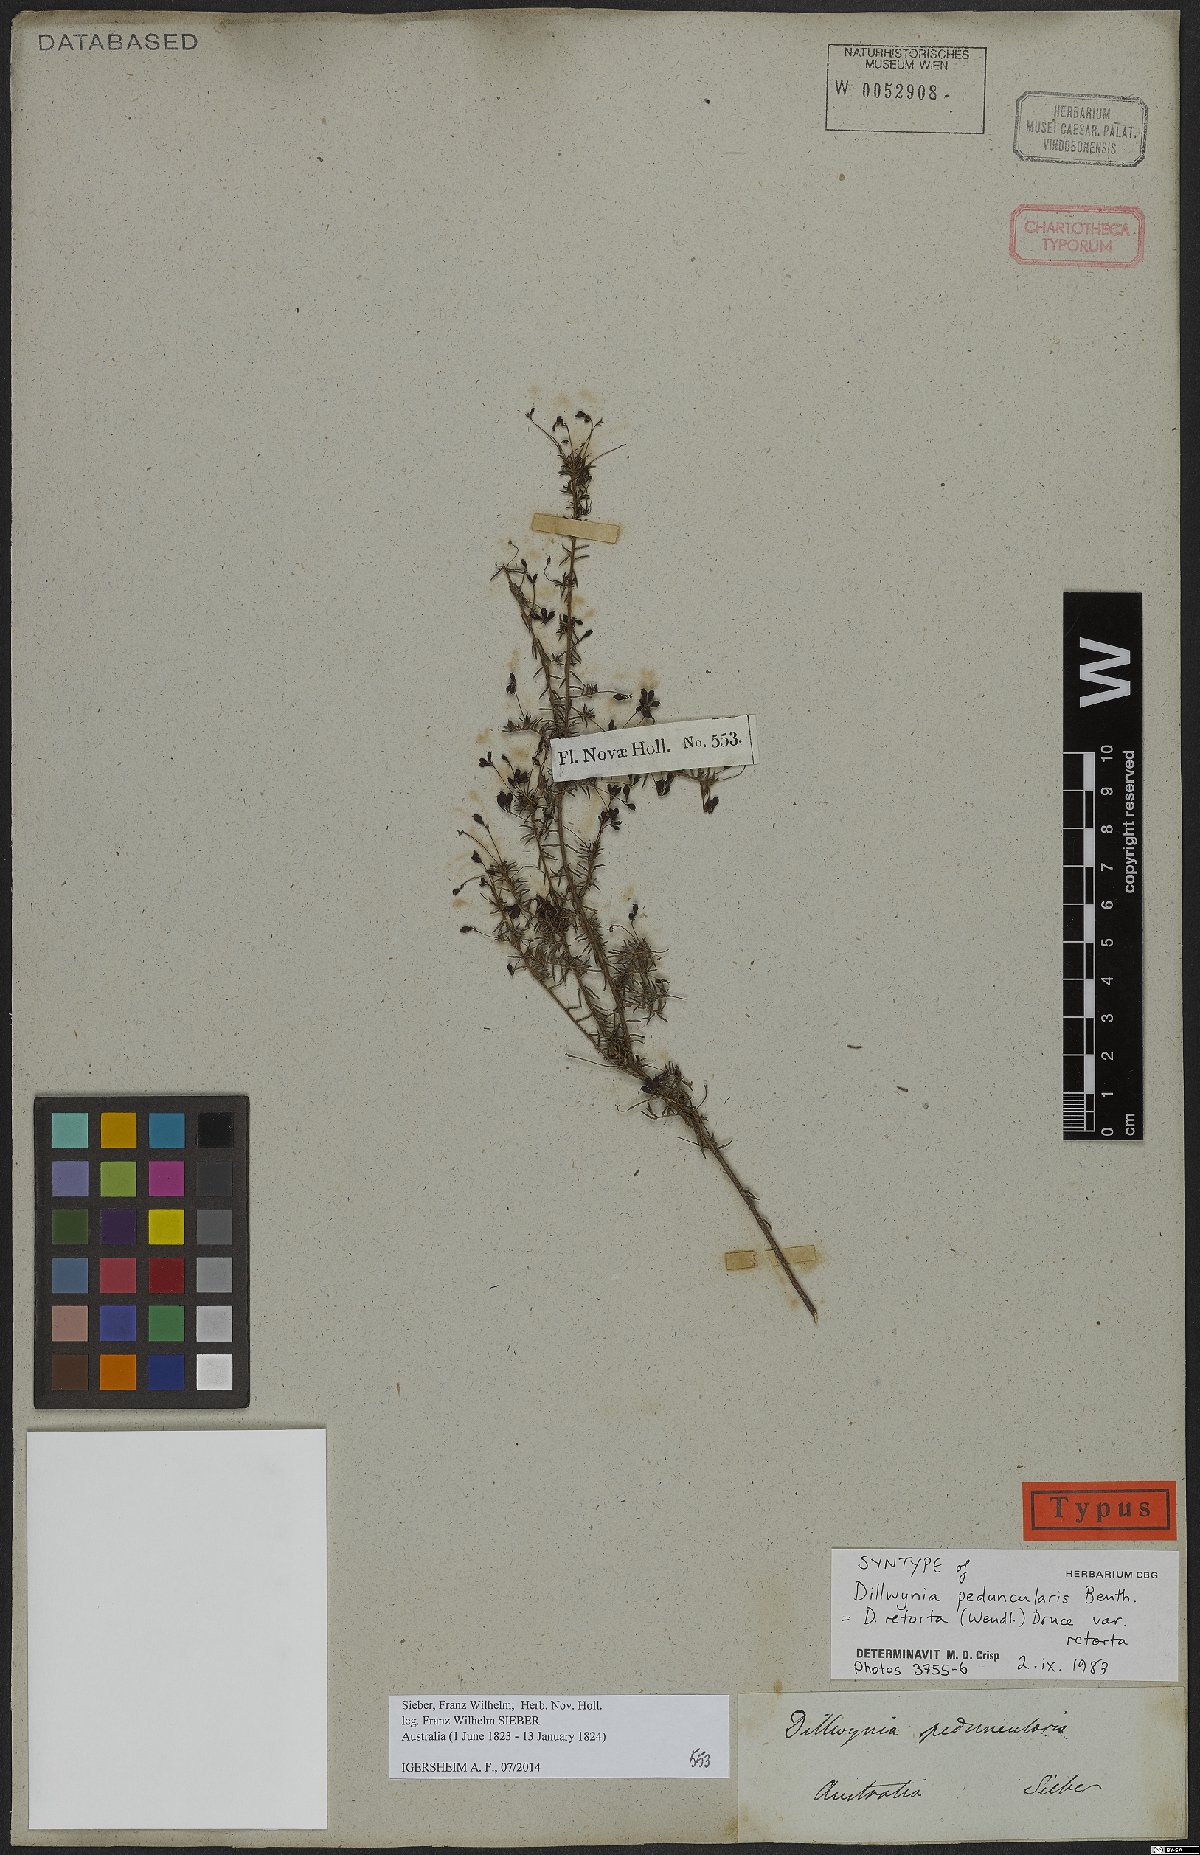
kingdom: Plantae
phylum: Tracheophyta
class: Magnoliopsida
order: Fabales
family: Fabaceae
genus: Dillwynia
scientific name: Dillwynia retorta
